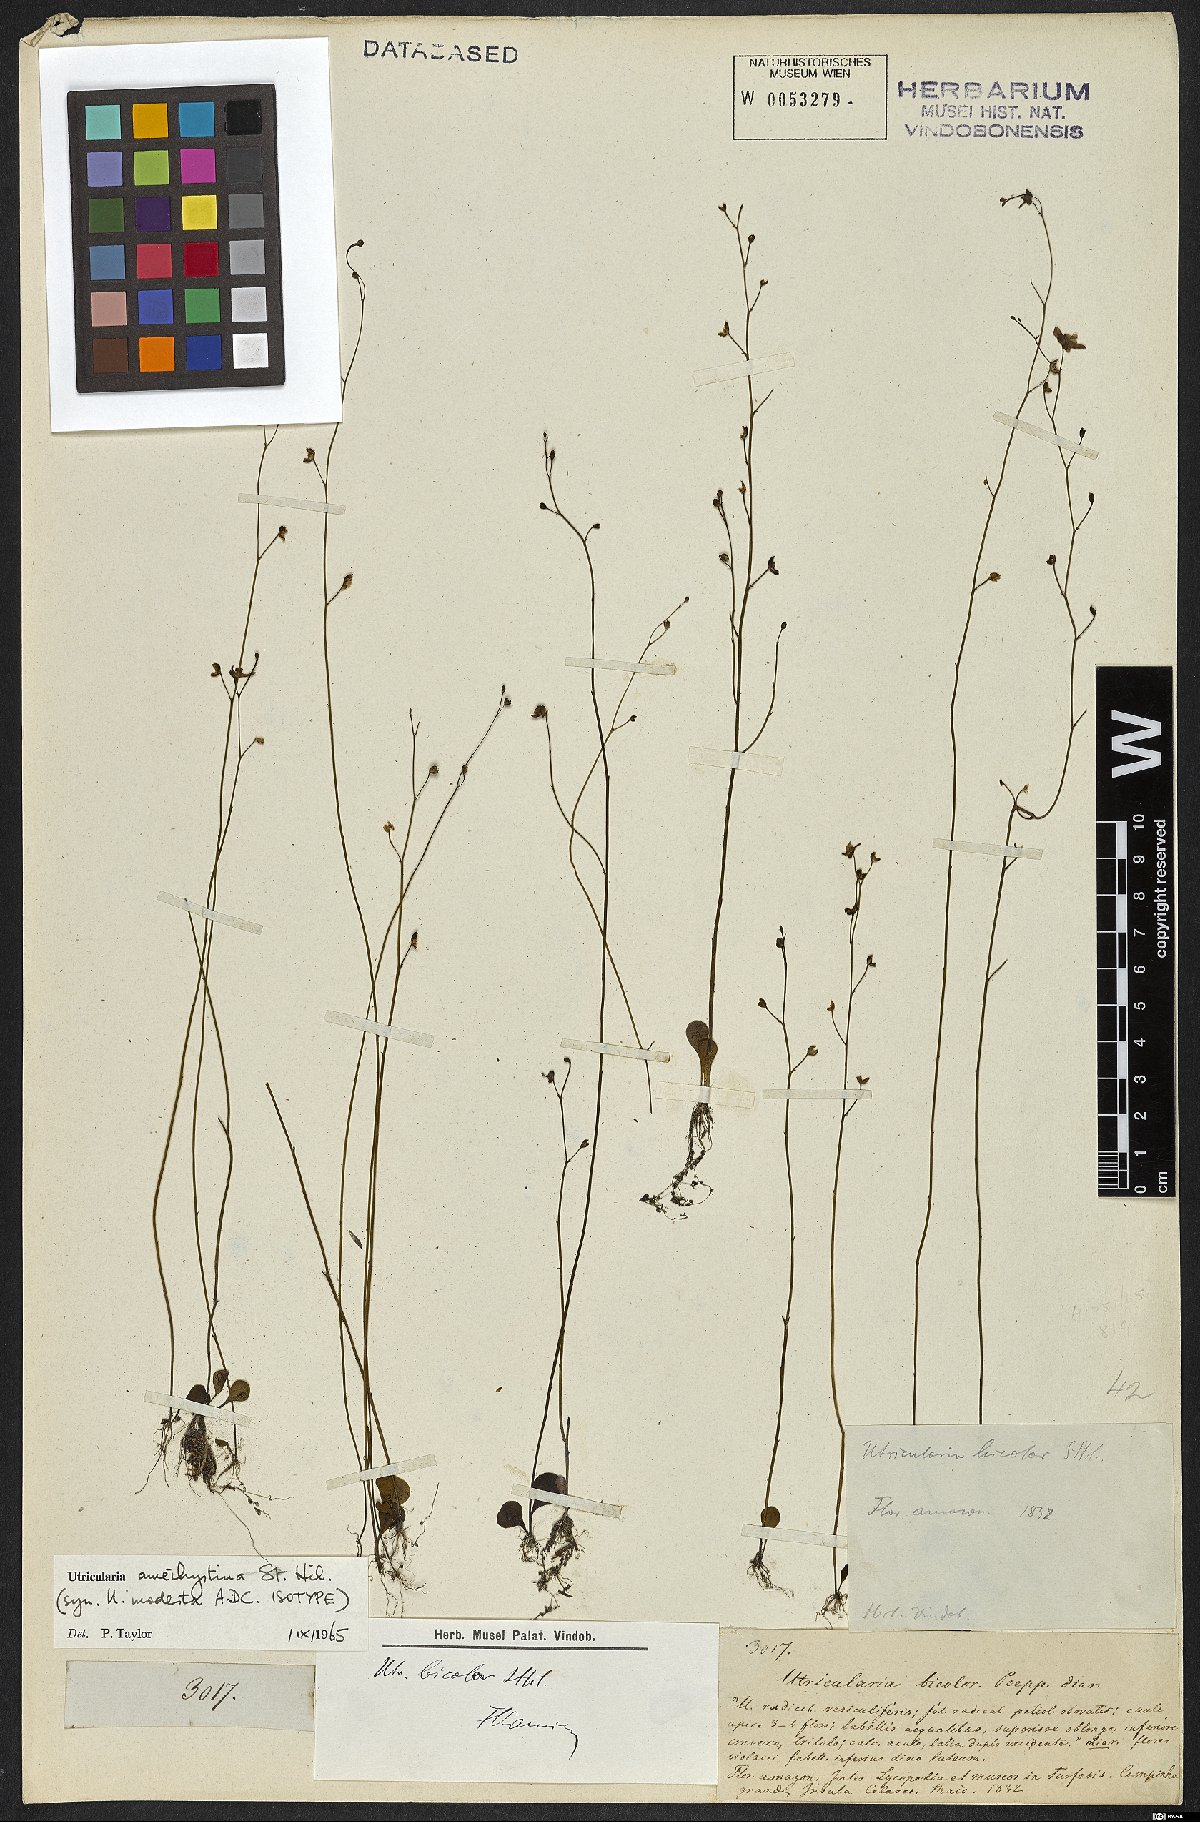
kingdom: Plantae
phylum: Tracheophyta
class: Magnoliopsida
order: Lamiales
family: Lentibulariaceae
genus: Utricularia
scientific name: Utricularia amethystina
